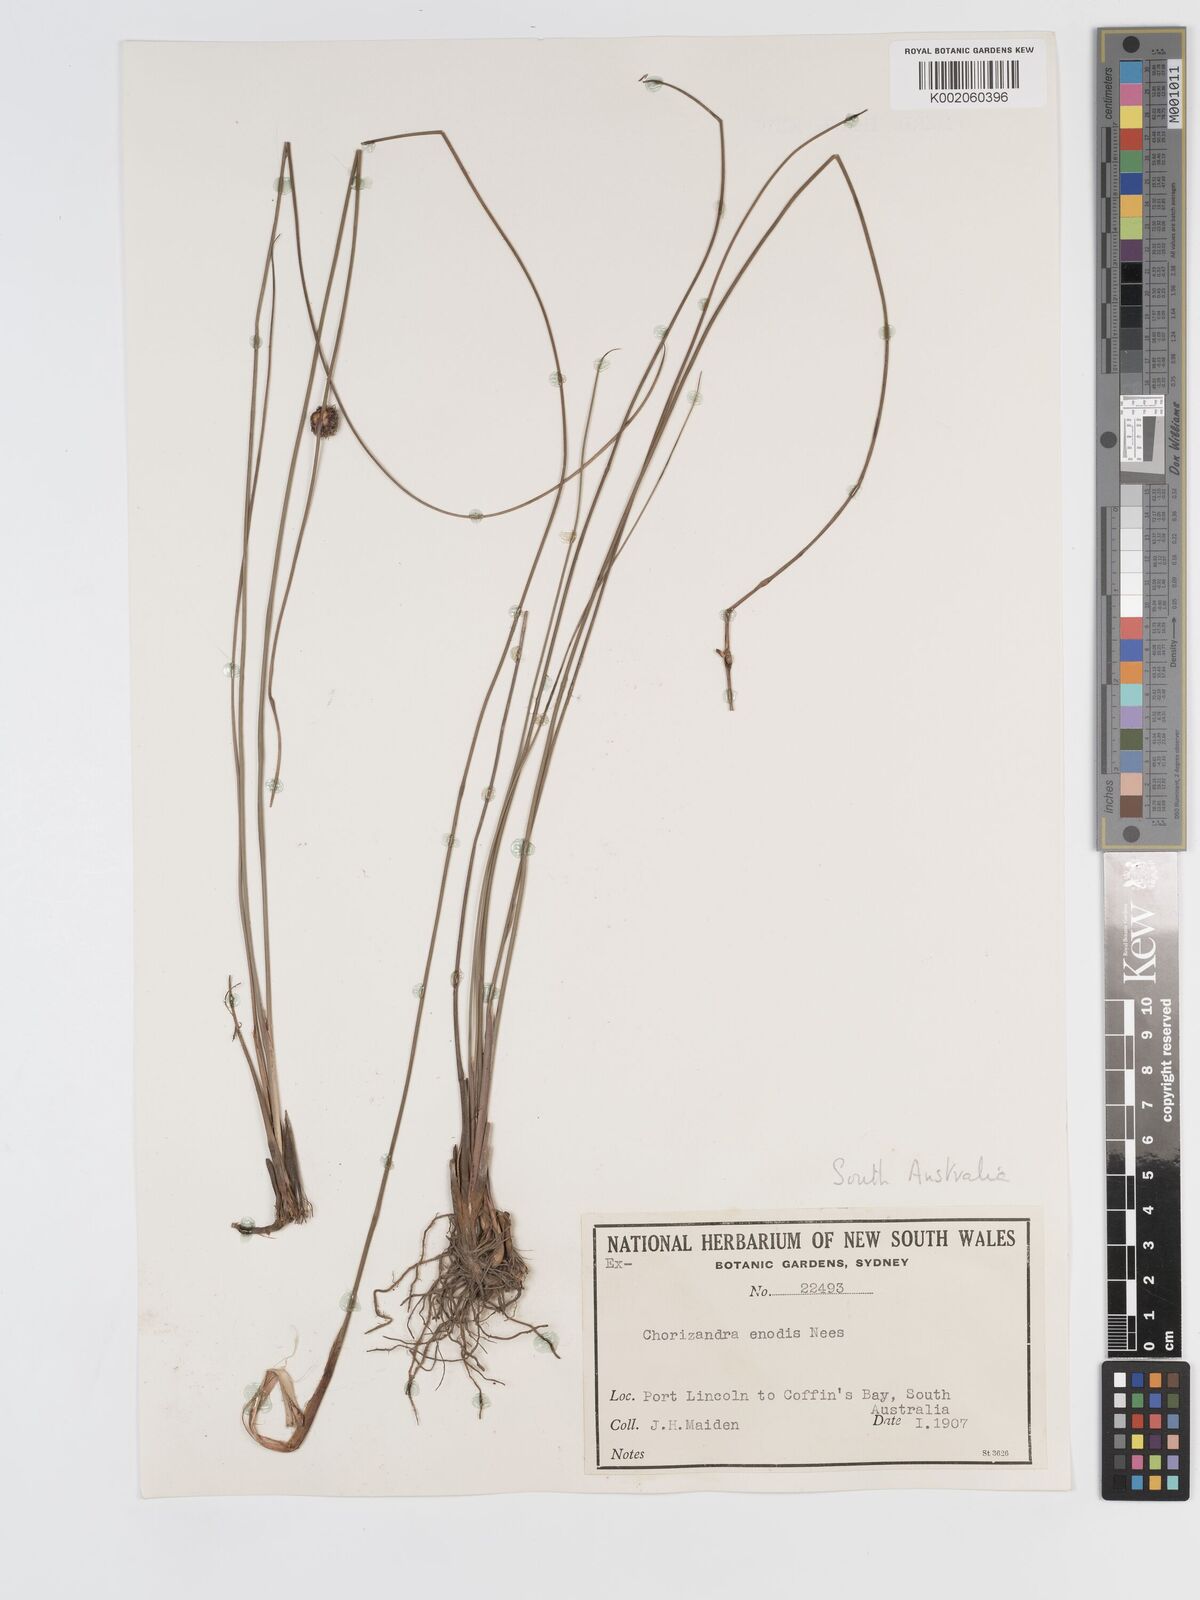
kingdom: Plantae
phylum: Tracheophyta
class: Liliopsida
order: Poales
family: Cyperaceae
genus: Chorizandra
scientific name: Chorizandra enodis
